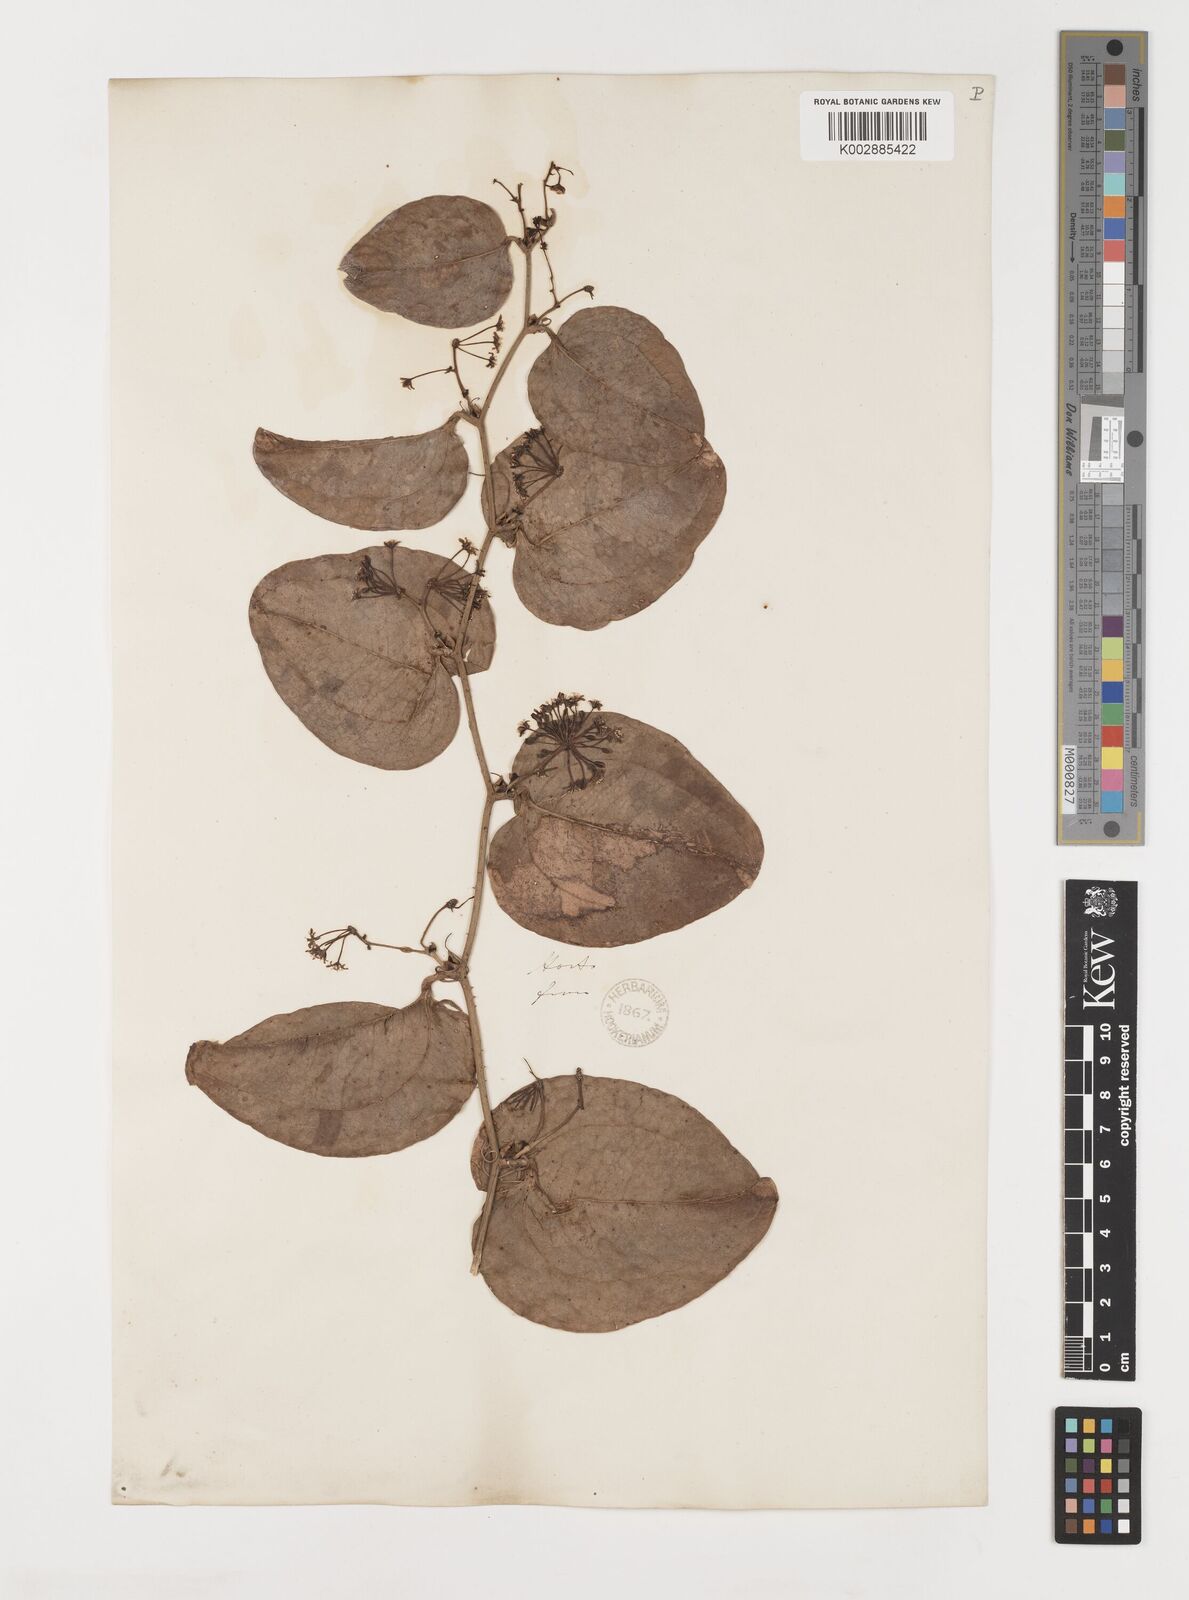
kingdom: Plantae
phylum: Tracheophyta
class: Liliopsida
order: Liliales
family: Smilacaceae
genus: Smilax
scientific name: Smilax excelsa
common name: Larger smilax
